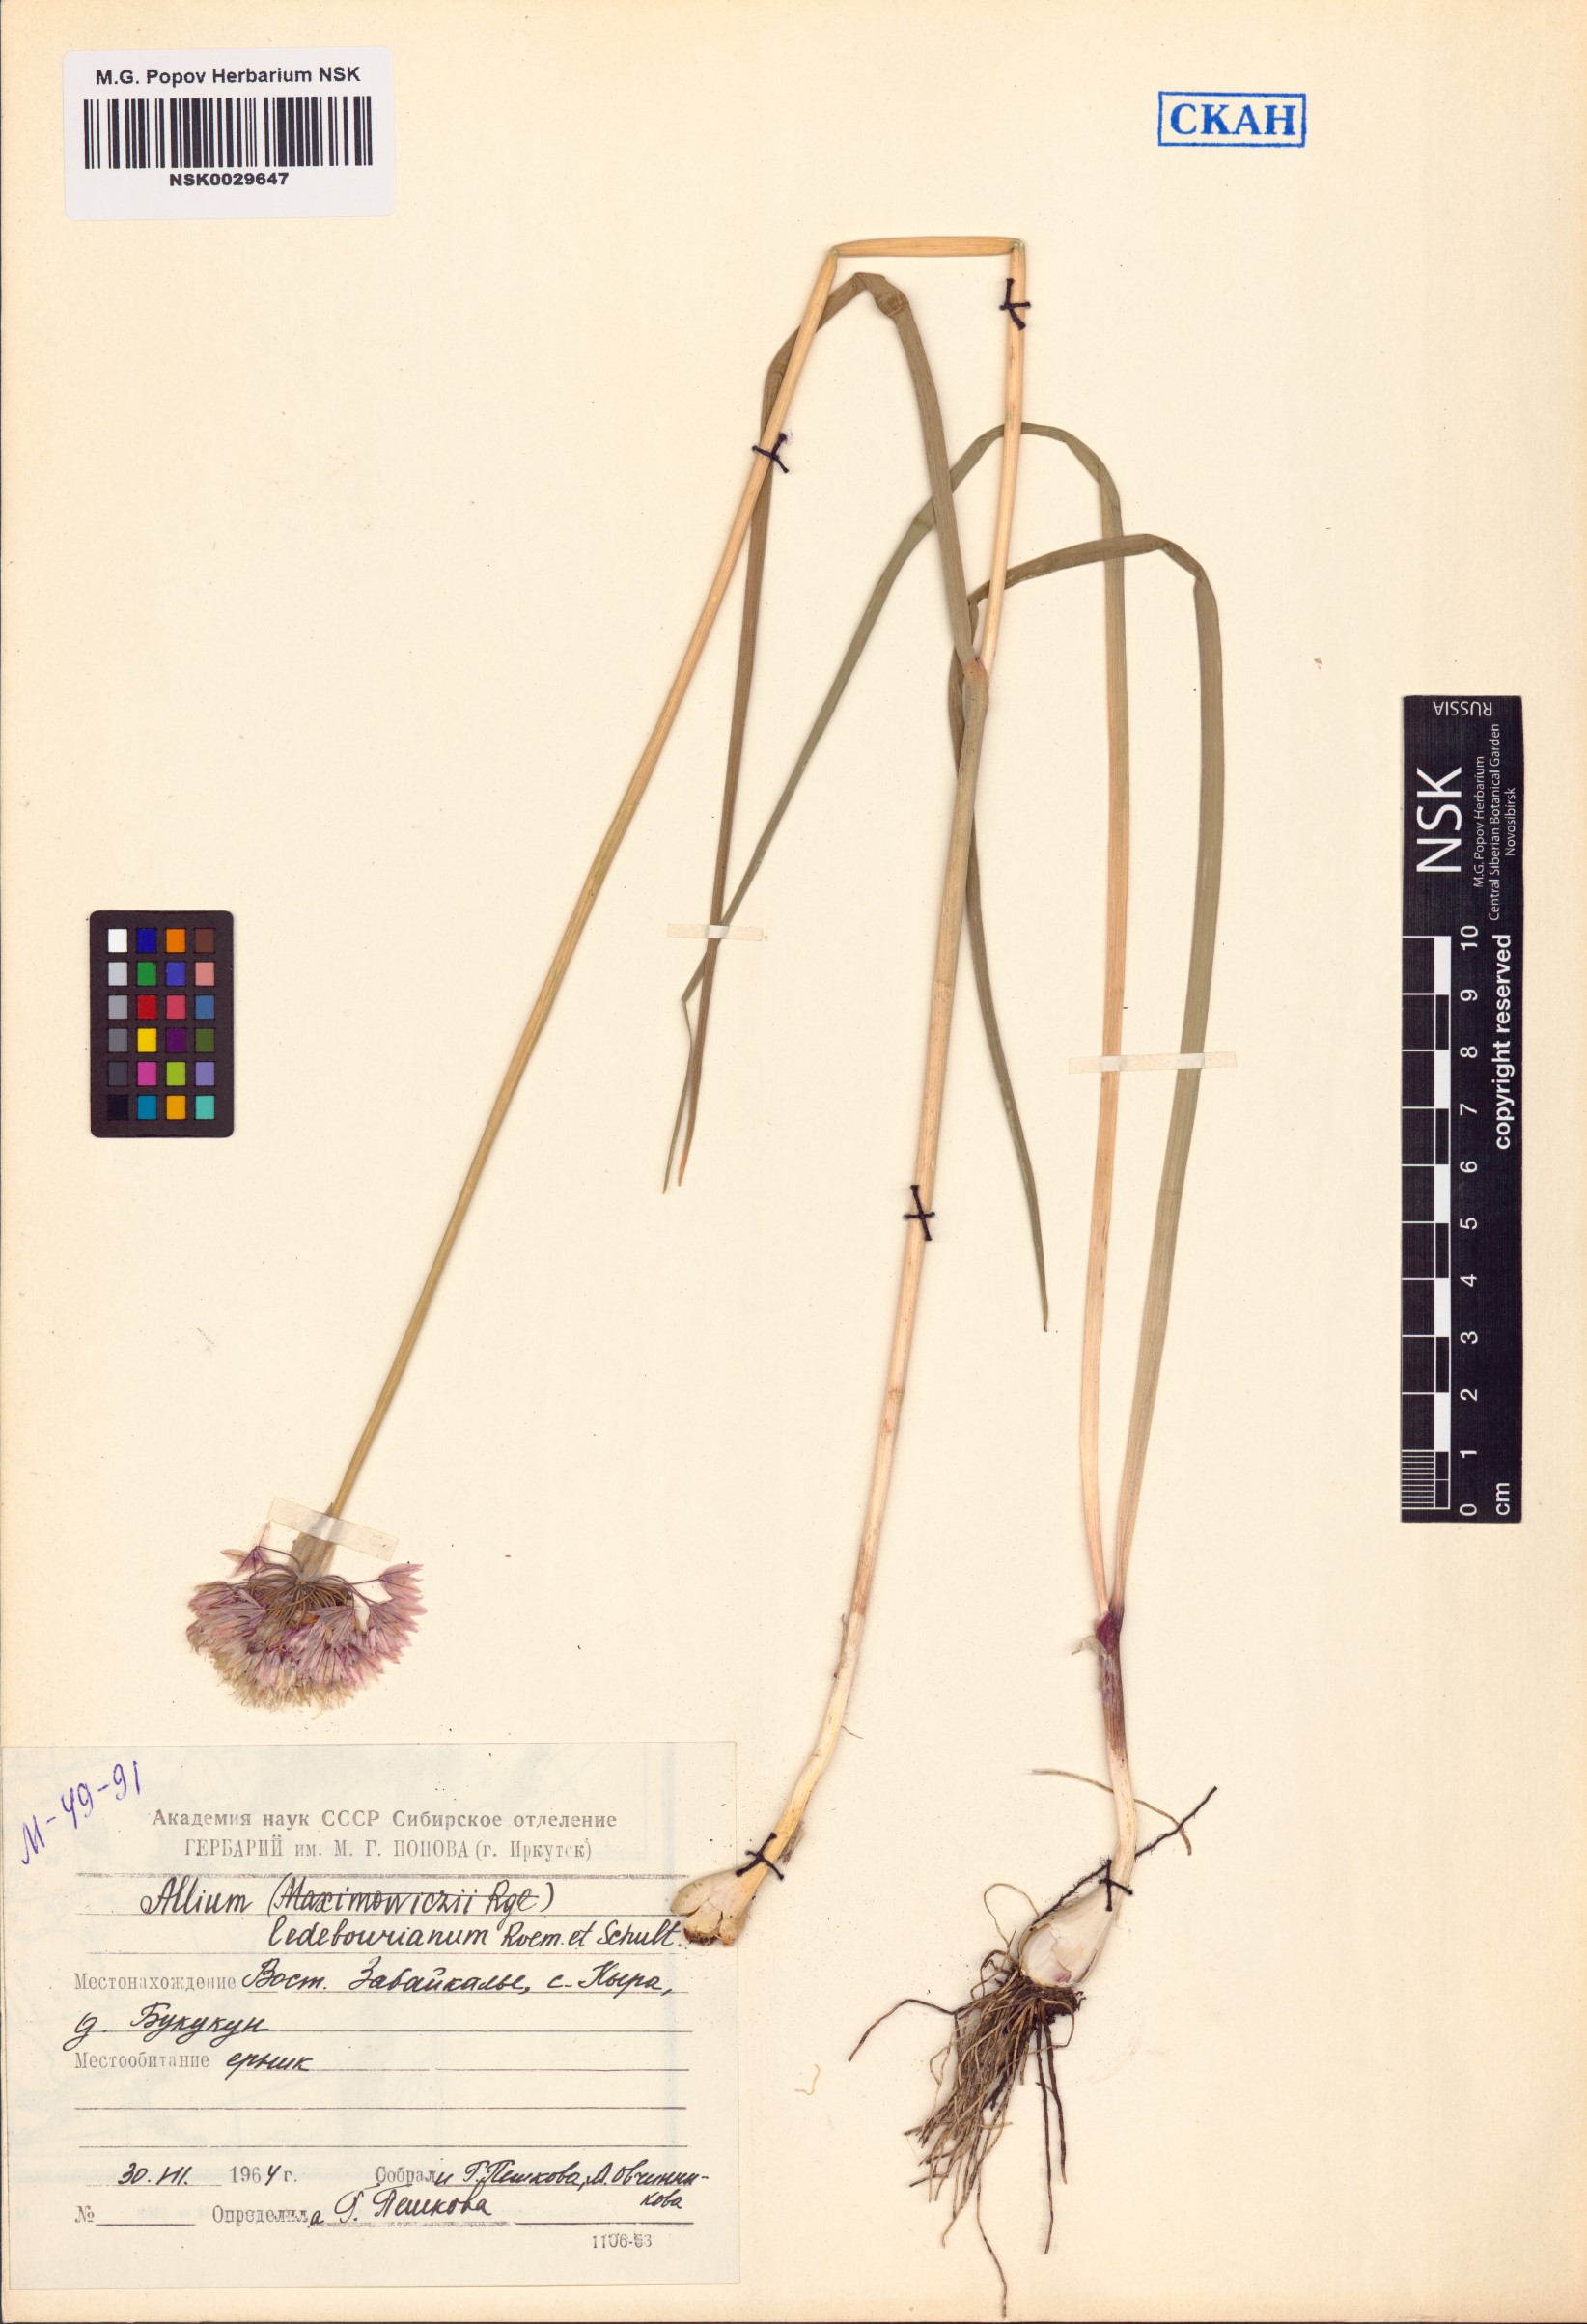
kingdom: Plantae
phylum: Tracheophyta
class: Liliopsida
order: Asparagales
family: Amaryllidaceae
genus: Allium
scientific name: Allium ledebourianum
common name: Ledebour chive
